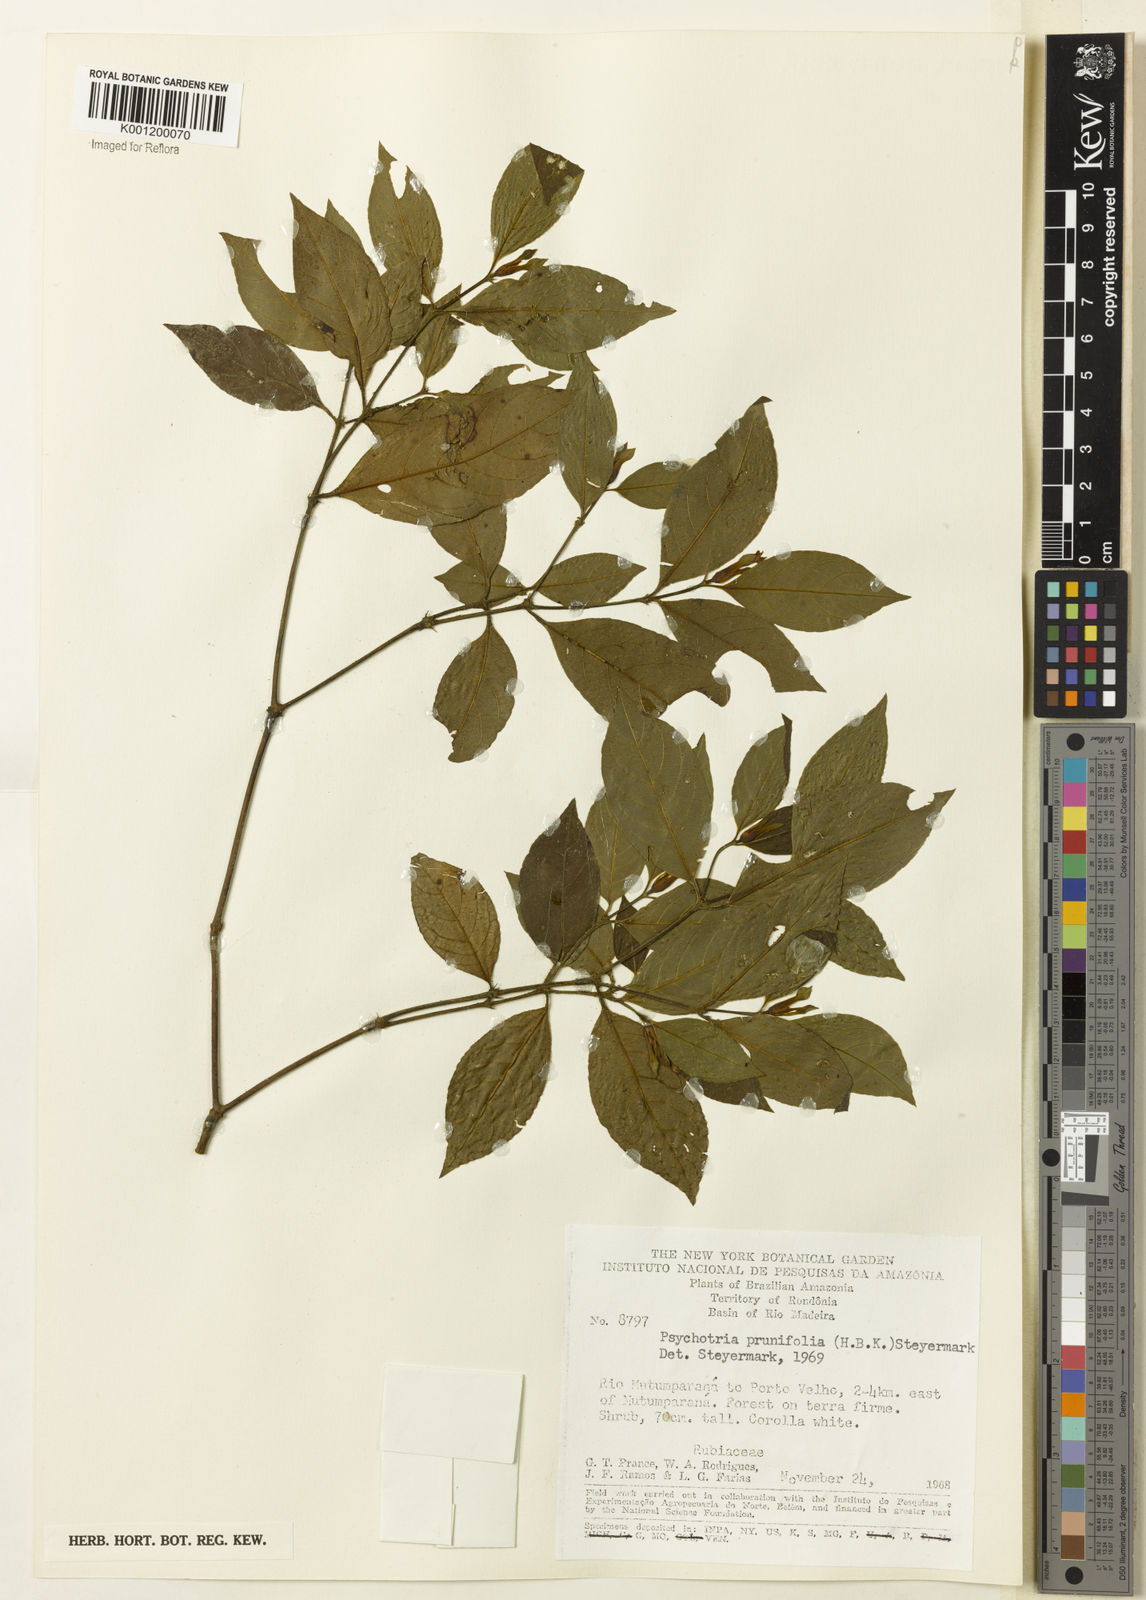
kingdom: Plantae
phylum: Tracheophyta
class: Magnoliopsida
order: Gentianales
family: Rubiaceae
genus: Palicourea
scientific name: Palicourea prunifolia
